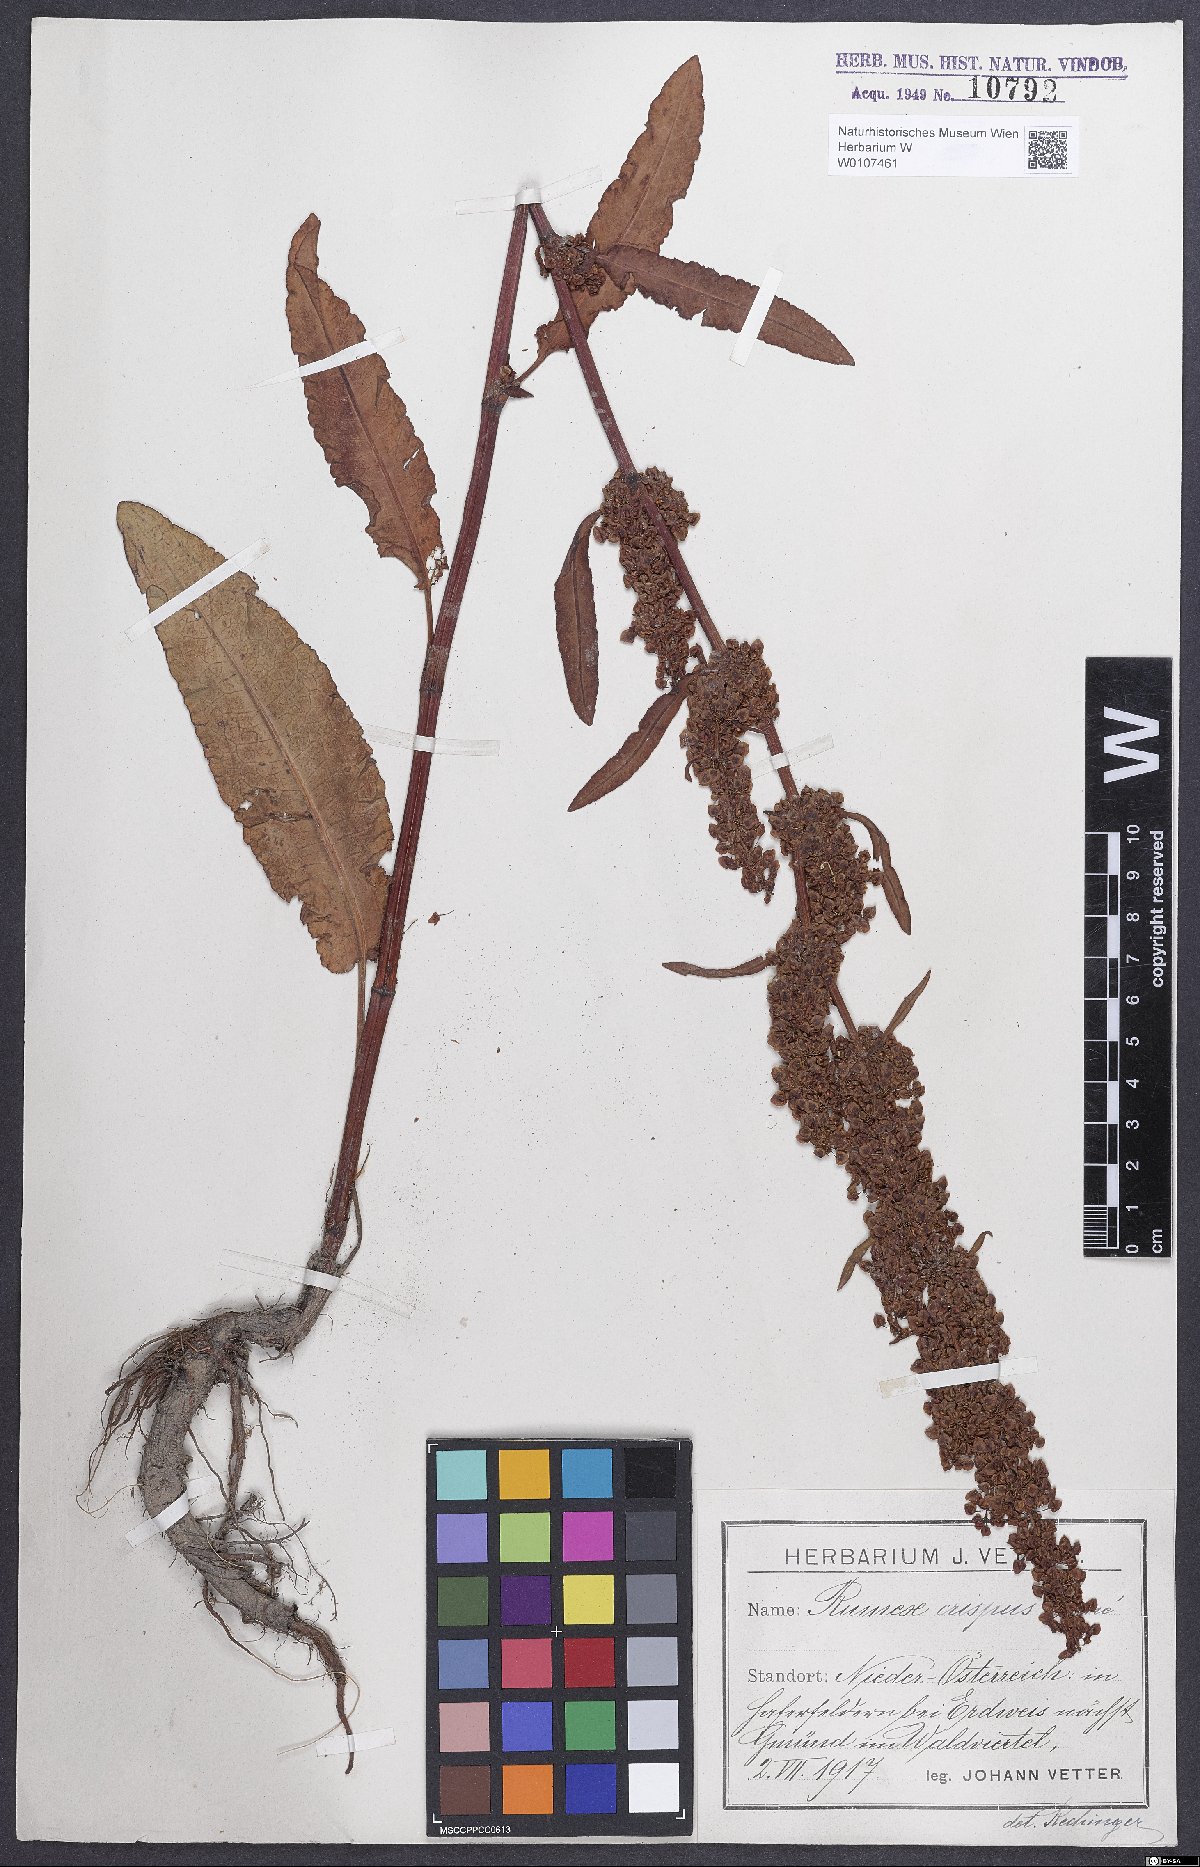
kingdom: Plantae
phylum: Tracheophyta
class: Magnoliopsida
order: Caryophyllales
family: Polygonaceae
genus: Rumex
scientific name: Rumex crispus
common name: Curled dock
